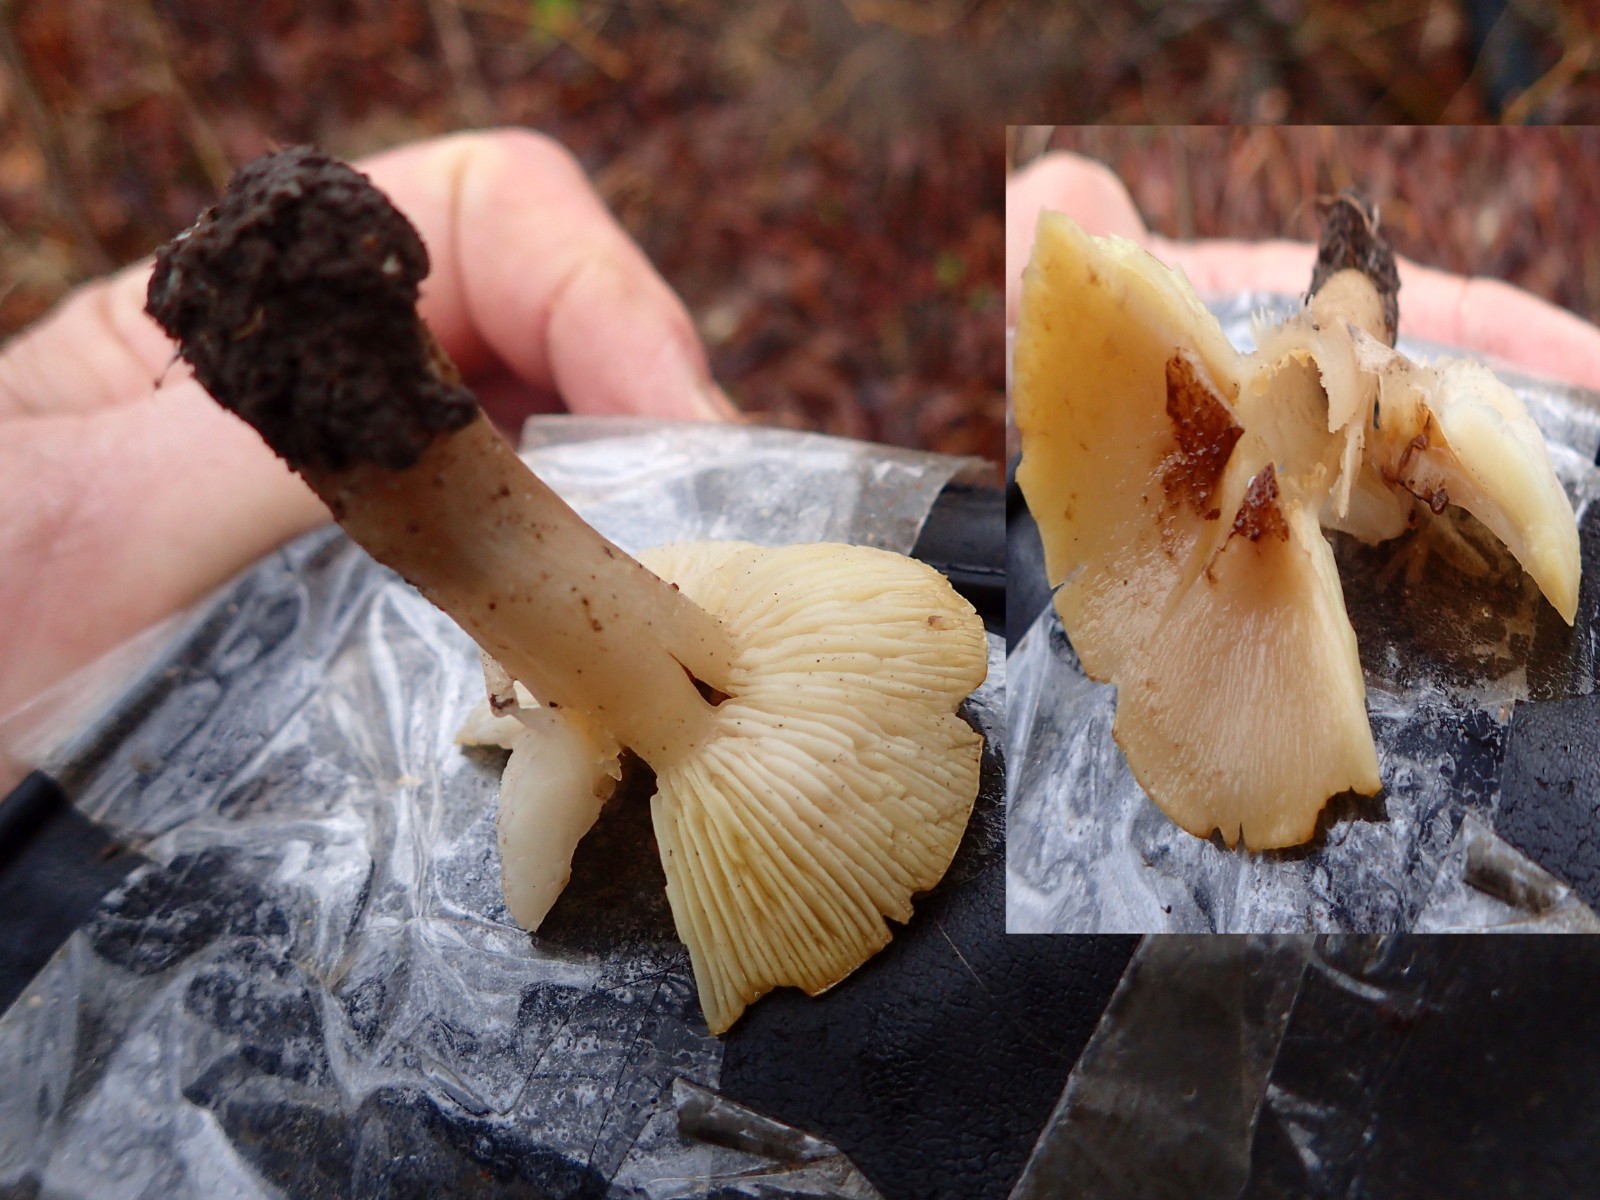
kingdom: Fungi
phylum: Basidiomycota
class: Agaricomycetes
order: Agaricales
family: Tricholomataceae
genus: Tricholoma
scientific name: Tricholoma scalpturatum
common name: gulplettet ridderhat
